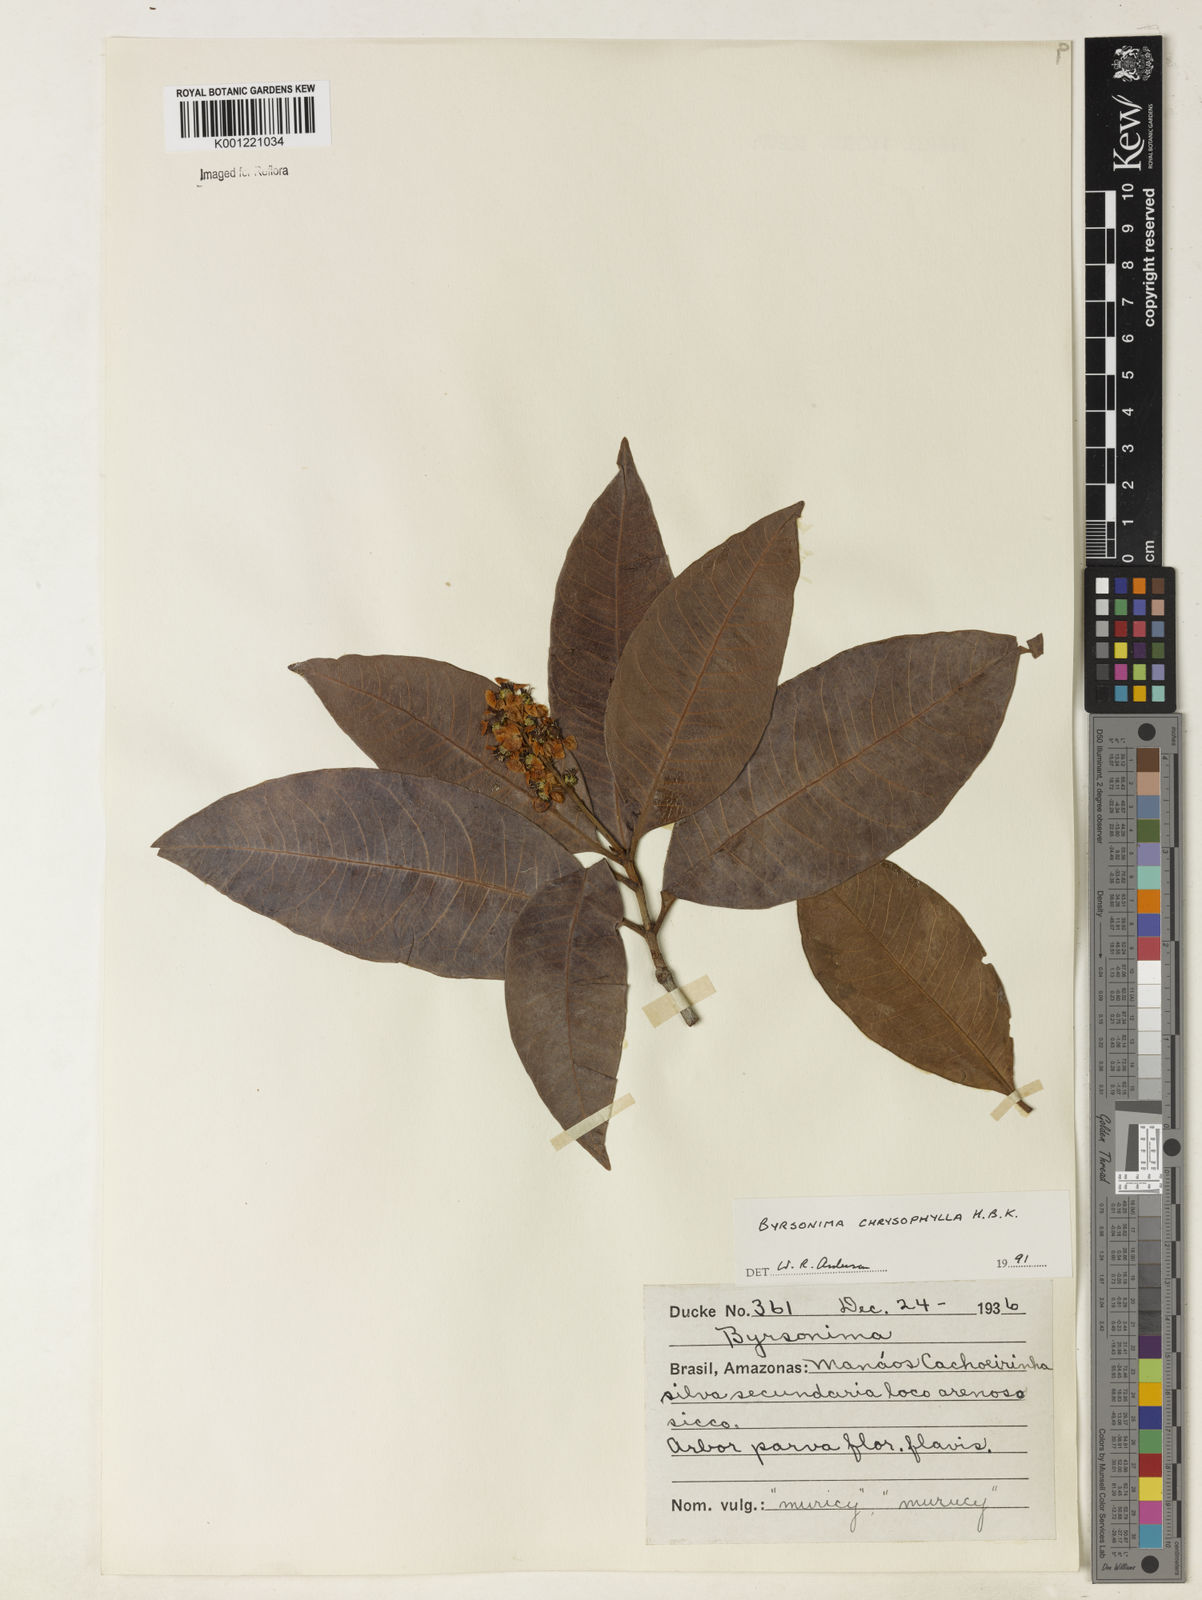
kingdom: Plantae
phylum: Tracheophyta
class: Magnoliopsida
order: Malpighiales
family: Malpighiaceae
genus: Byrsonima
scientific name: Byrsonima chrysophylla
